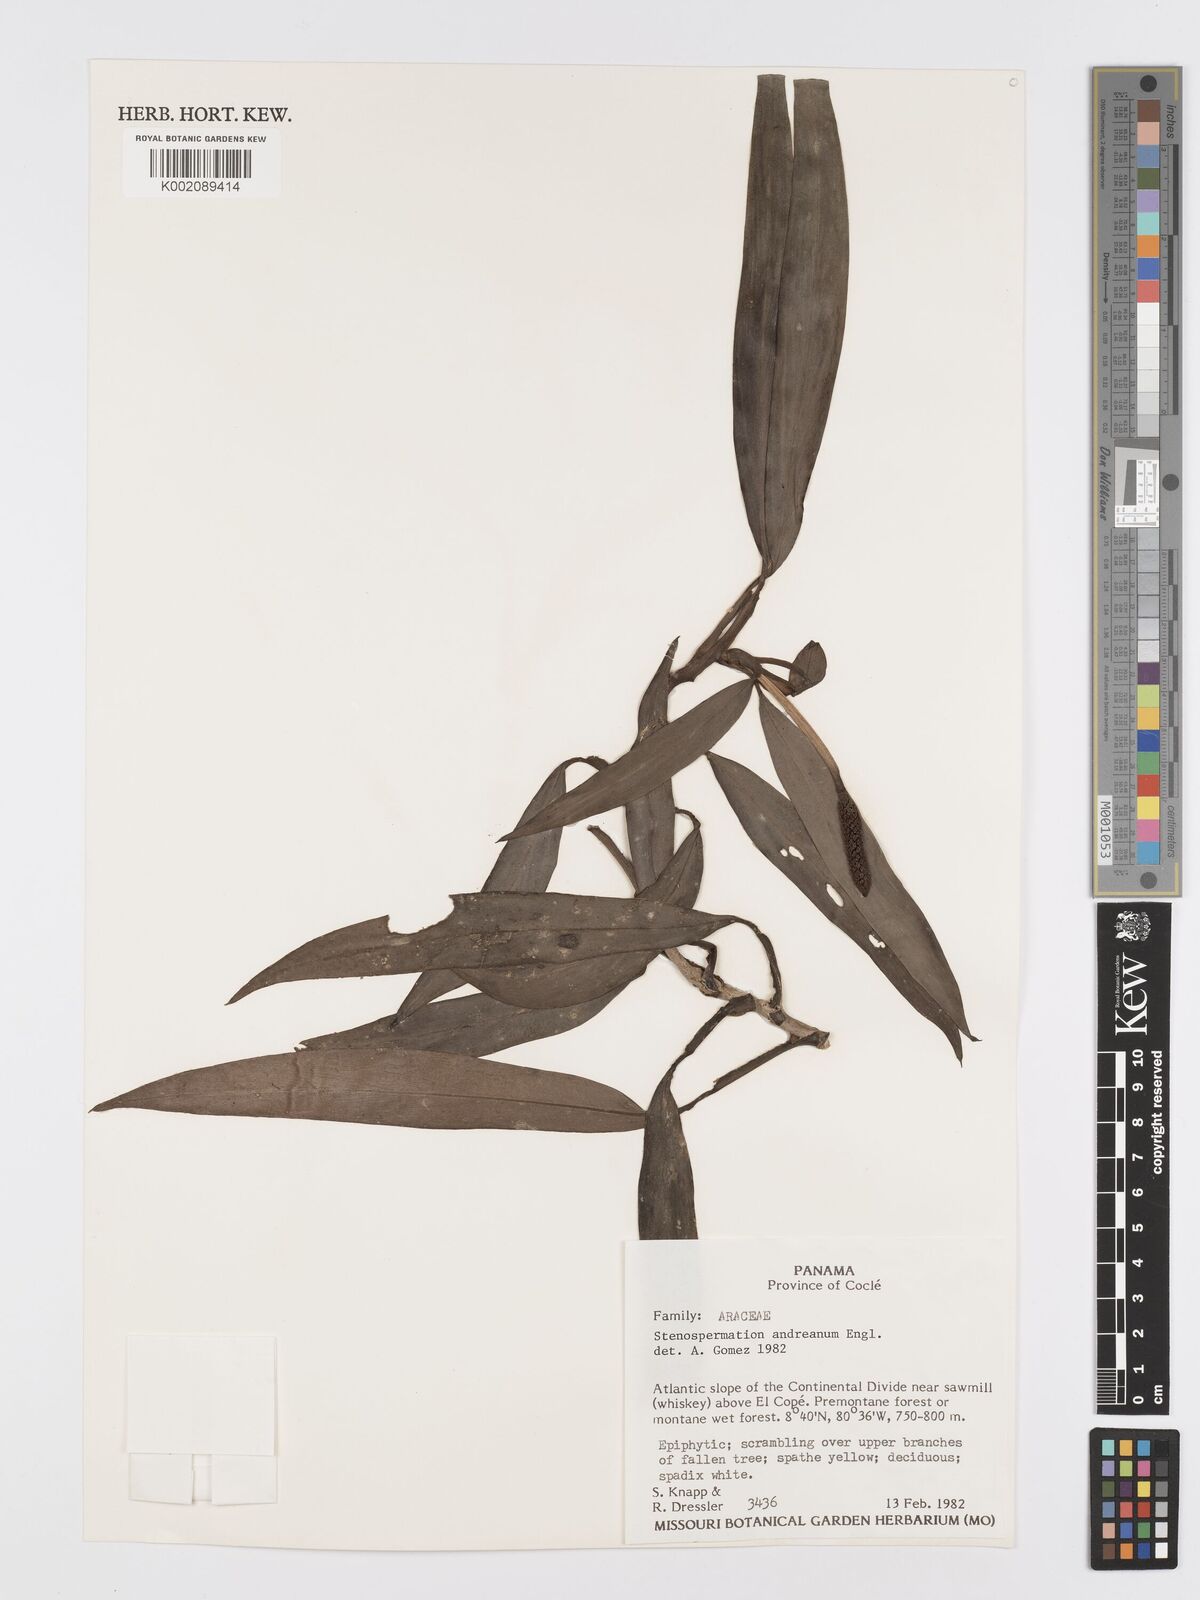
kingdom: Plantae
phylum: Tracheophyta
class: Liliopsida
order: Alismatales
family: Araceae
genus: Stenospermation
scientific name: Stenospermation andreanum
